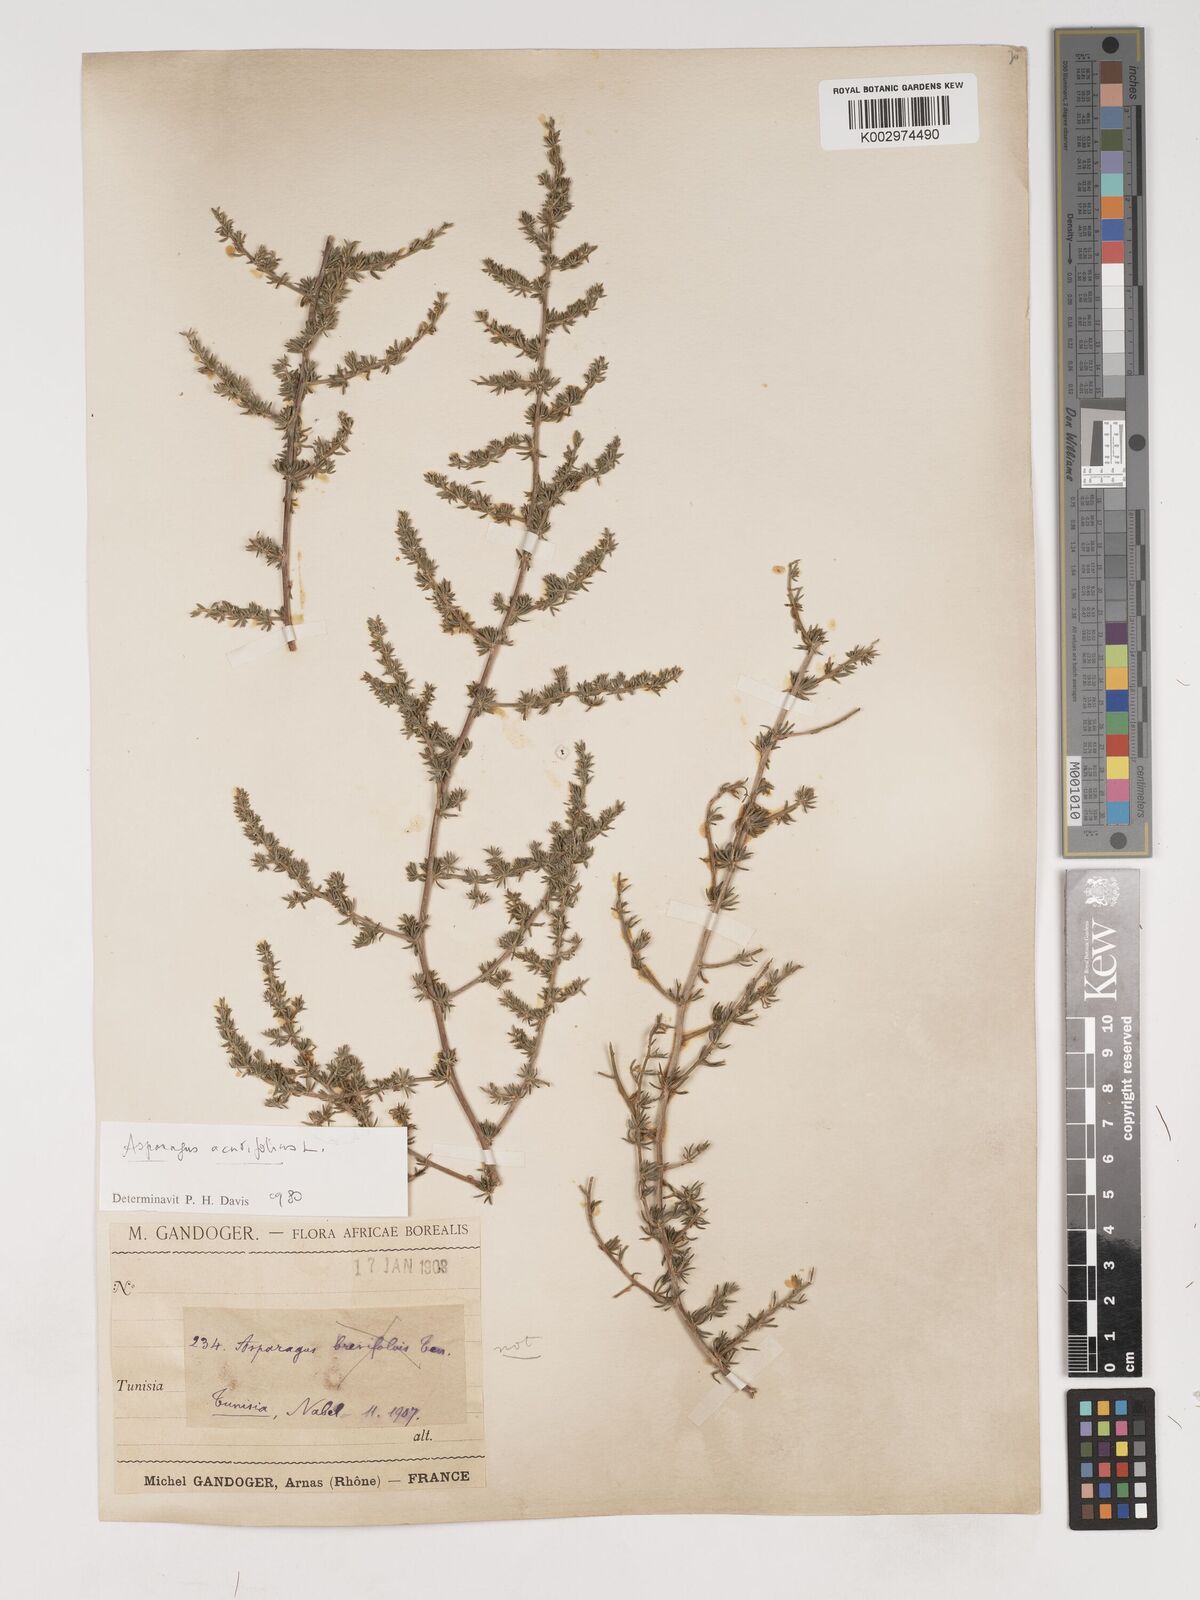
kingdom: Plantae
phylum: Tracheophyta
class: Liliopsida
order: Asparagales
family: Asparagaceae
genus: Asparagus
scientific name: Asparagus acutifolius
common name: Wild asparagus
